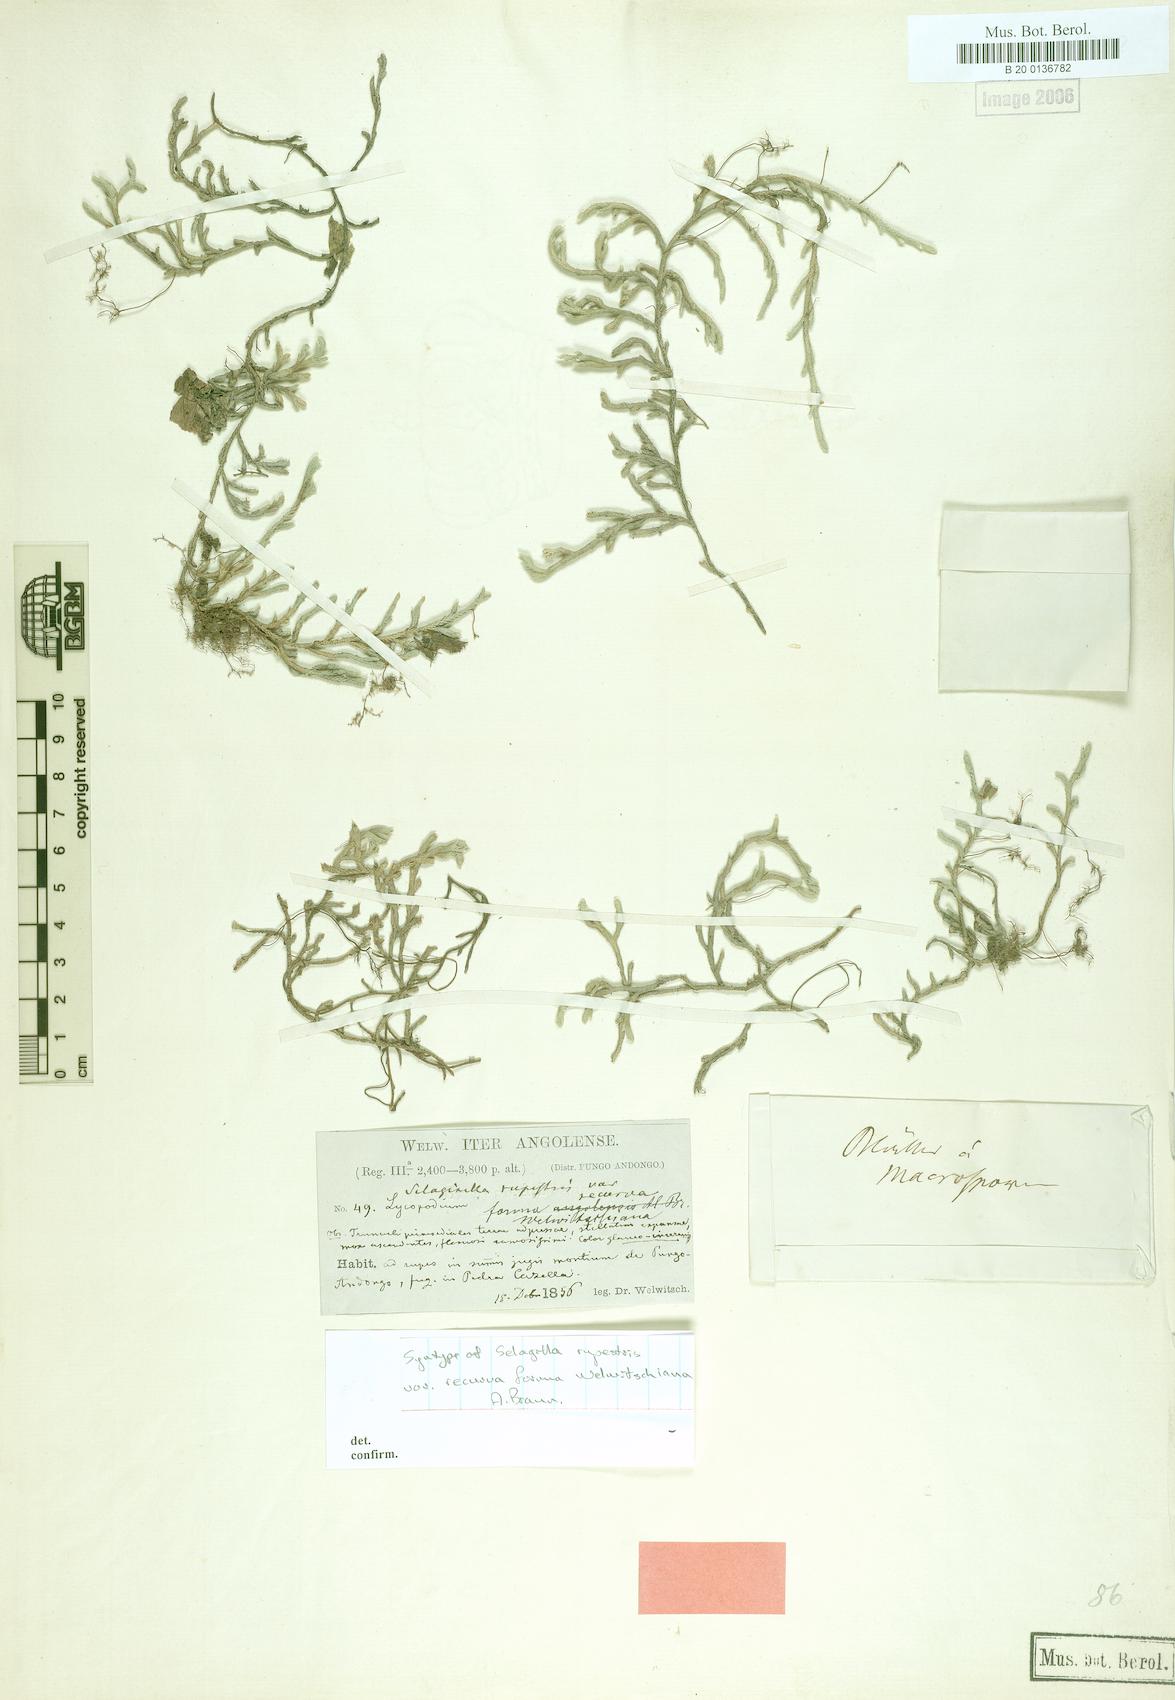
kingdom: Plantae
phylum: Tracheophyta
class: Lycopodiopsida
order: Selaginellales
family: Selaginellaceae
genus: Selaginella
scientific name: Selaginella dregei
